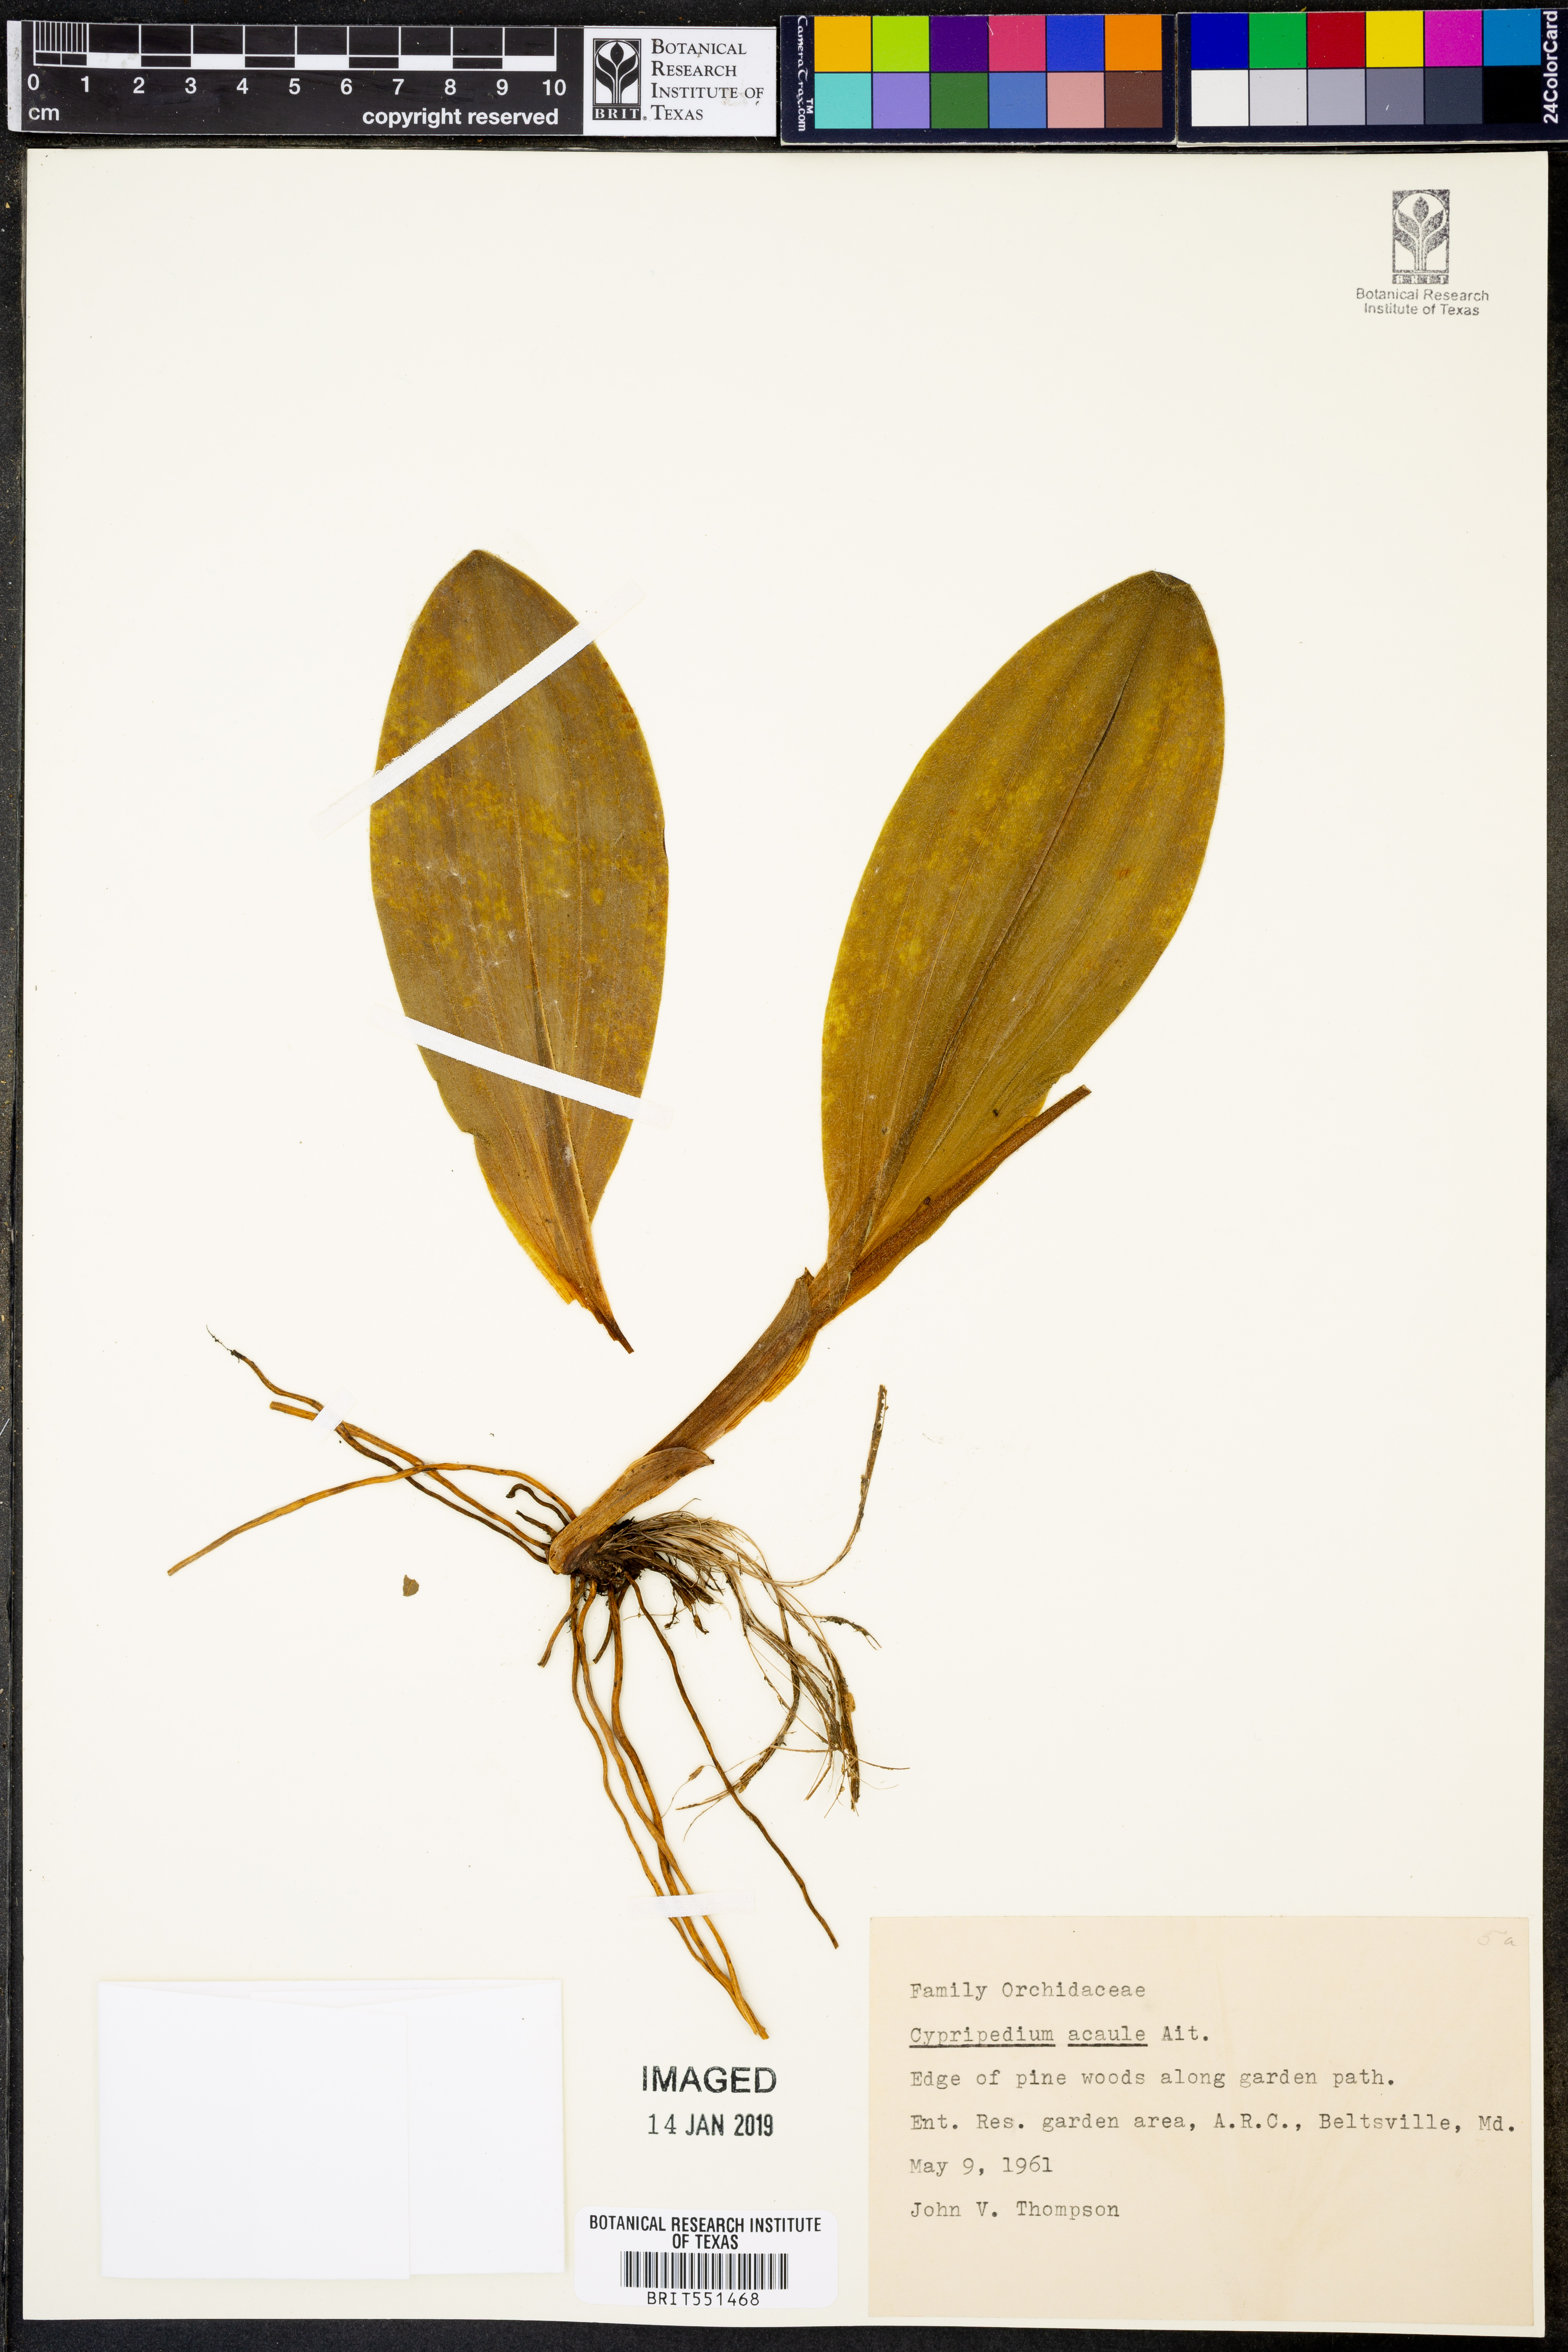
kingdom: Plantae
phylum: Tracheophyta
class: Liliopsida
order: Asparagales
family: Orchidaceae
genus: Cypripedium
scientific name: Cypripedium acaule
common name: Pink lady's-slipper
